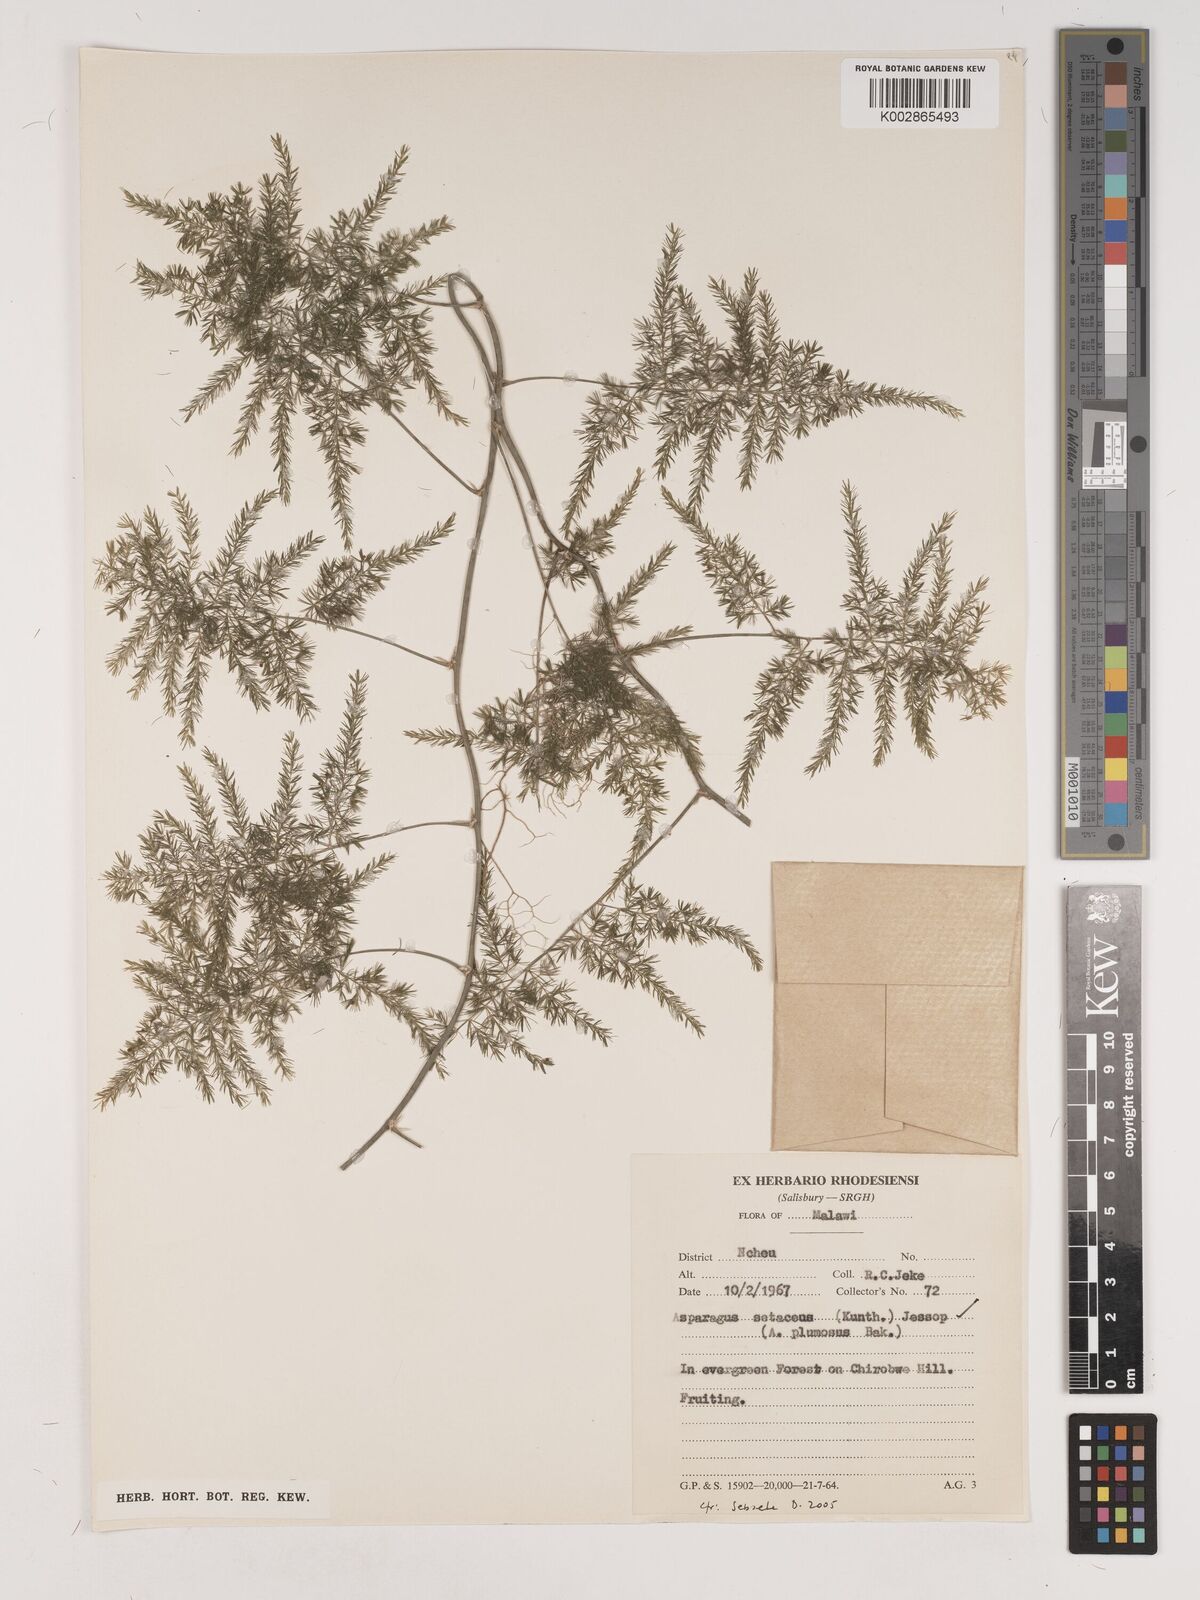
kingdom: Plantae
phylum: Tracheophyta
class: Liliopsida
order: Asparagales
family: Asparagaceae
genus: Asparagus
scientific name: Asparagus setaceus
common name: Common asparagus fern
